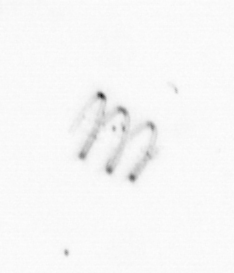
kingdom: Chromista
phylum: Ochrophyta
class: Bacillariophyceae
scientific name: Bacillariophyceae
